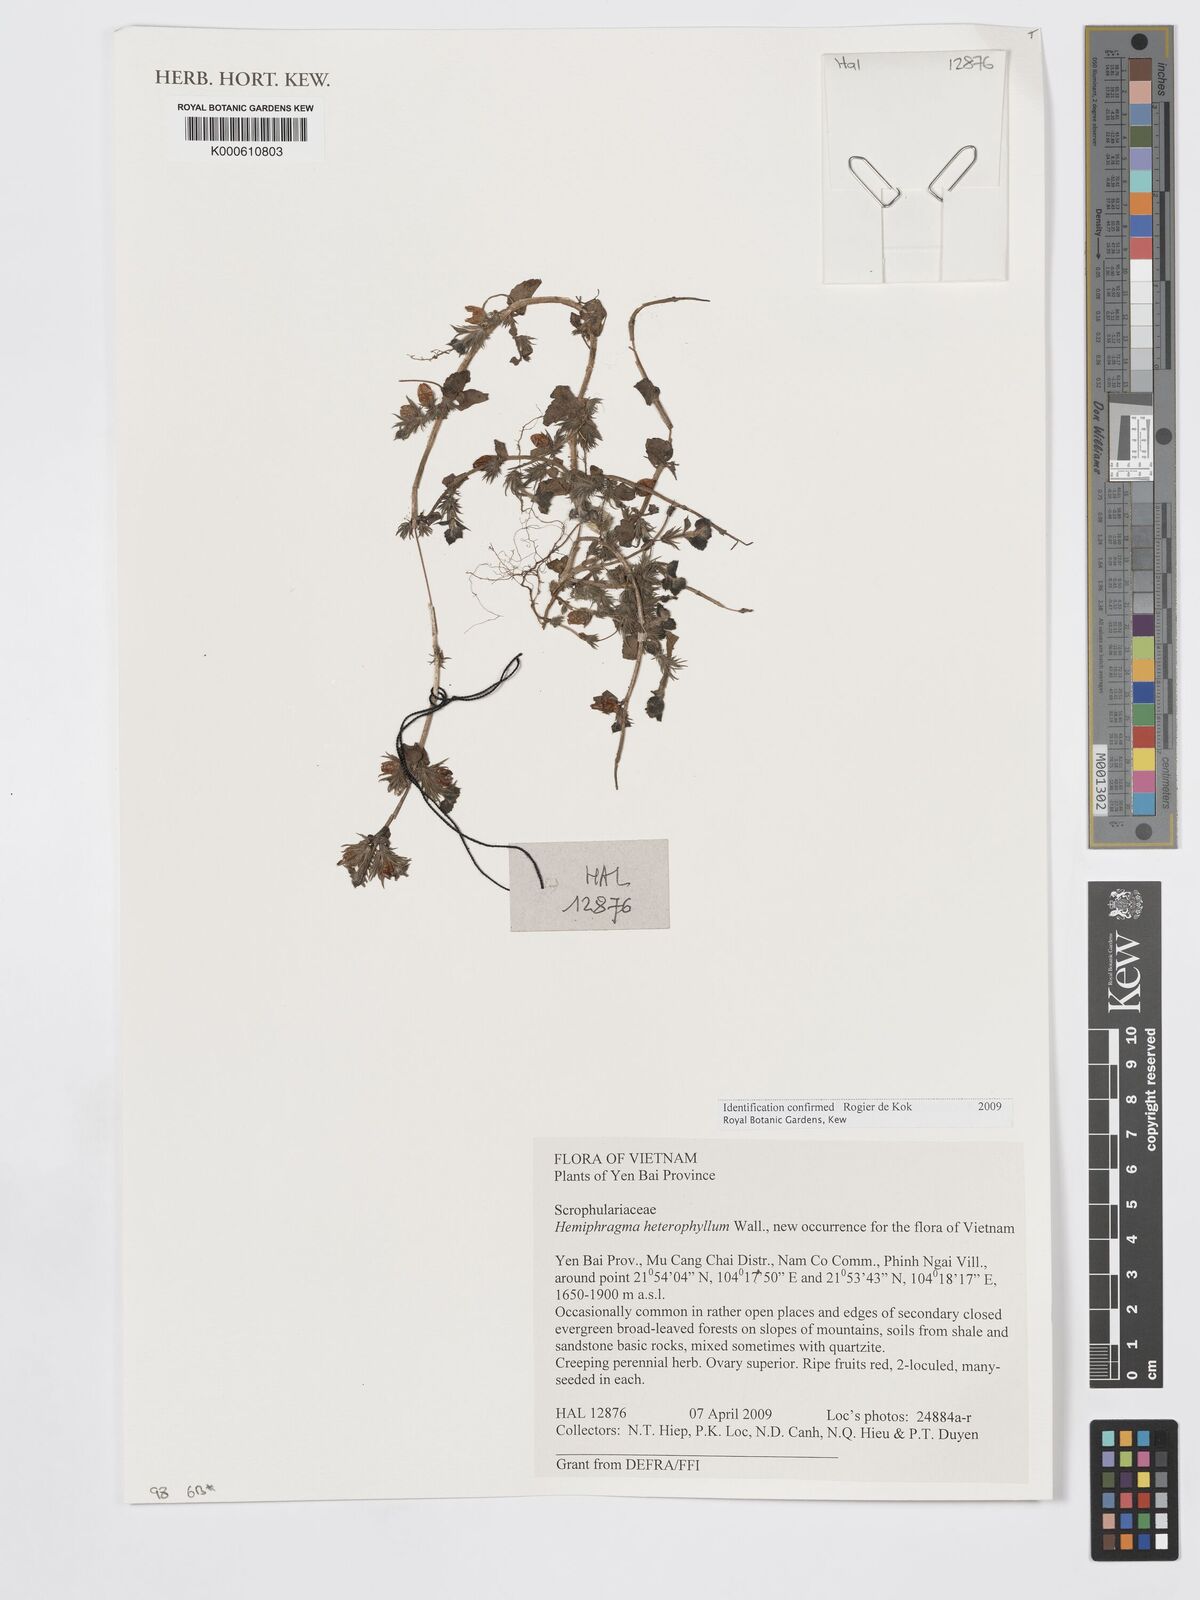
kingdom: Plantae
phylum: Tracheophyta
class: Magnoliopsida
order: Lamiales
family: Plantaginaceae
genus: Hemiphragma
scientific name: Hemiphragma heterophyllum
